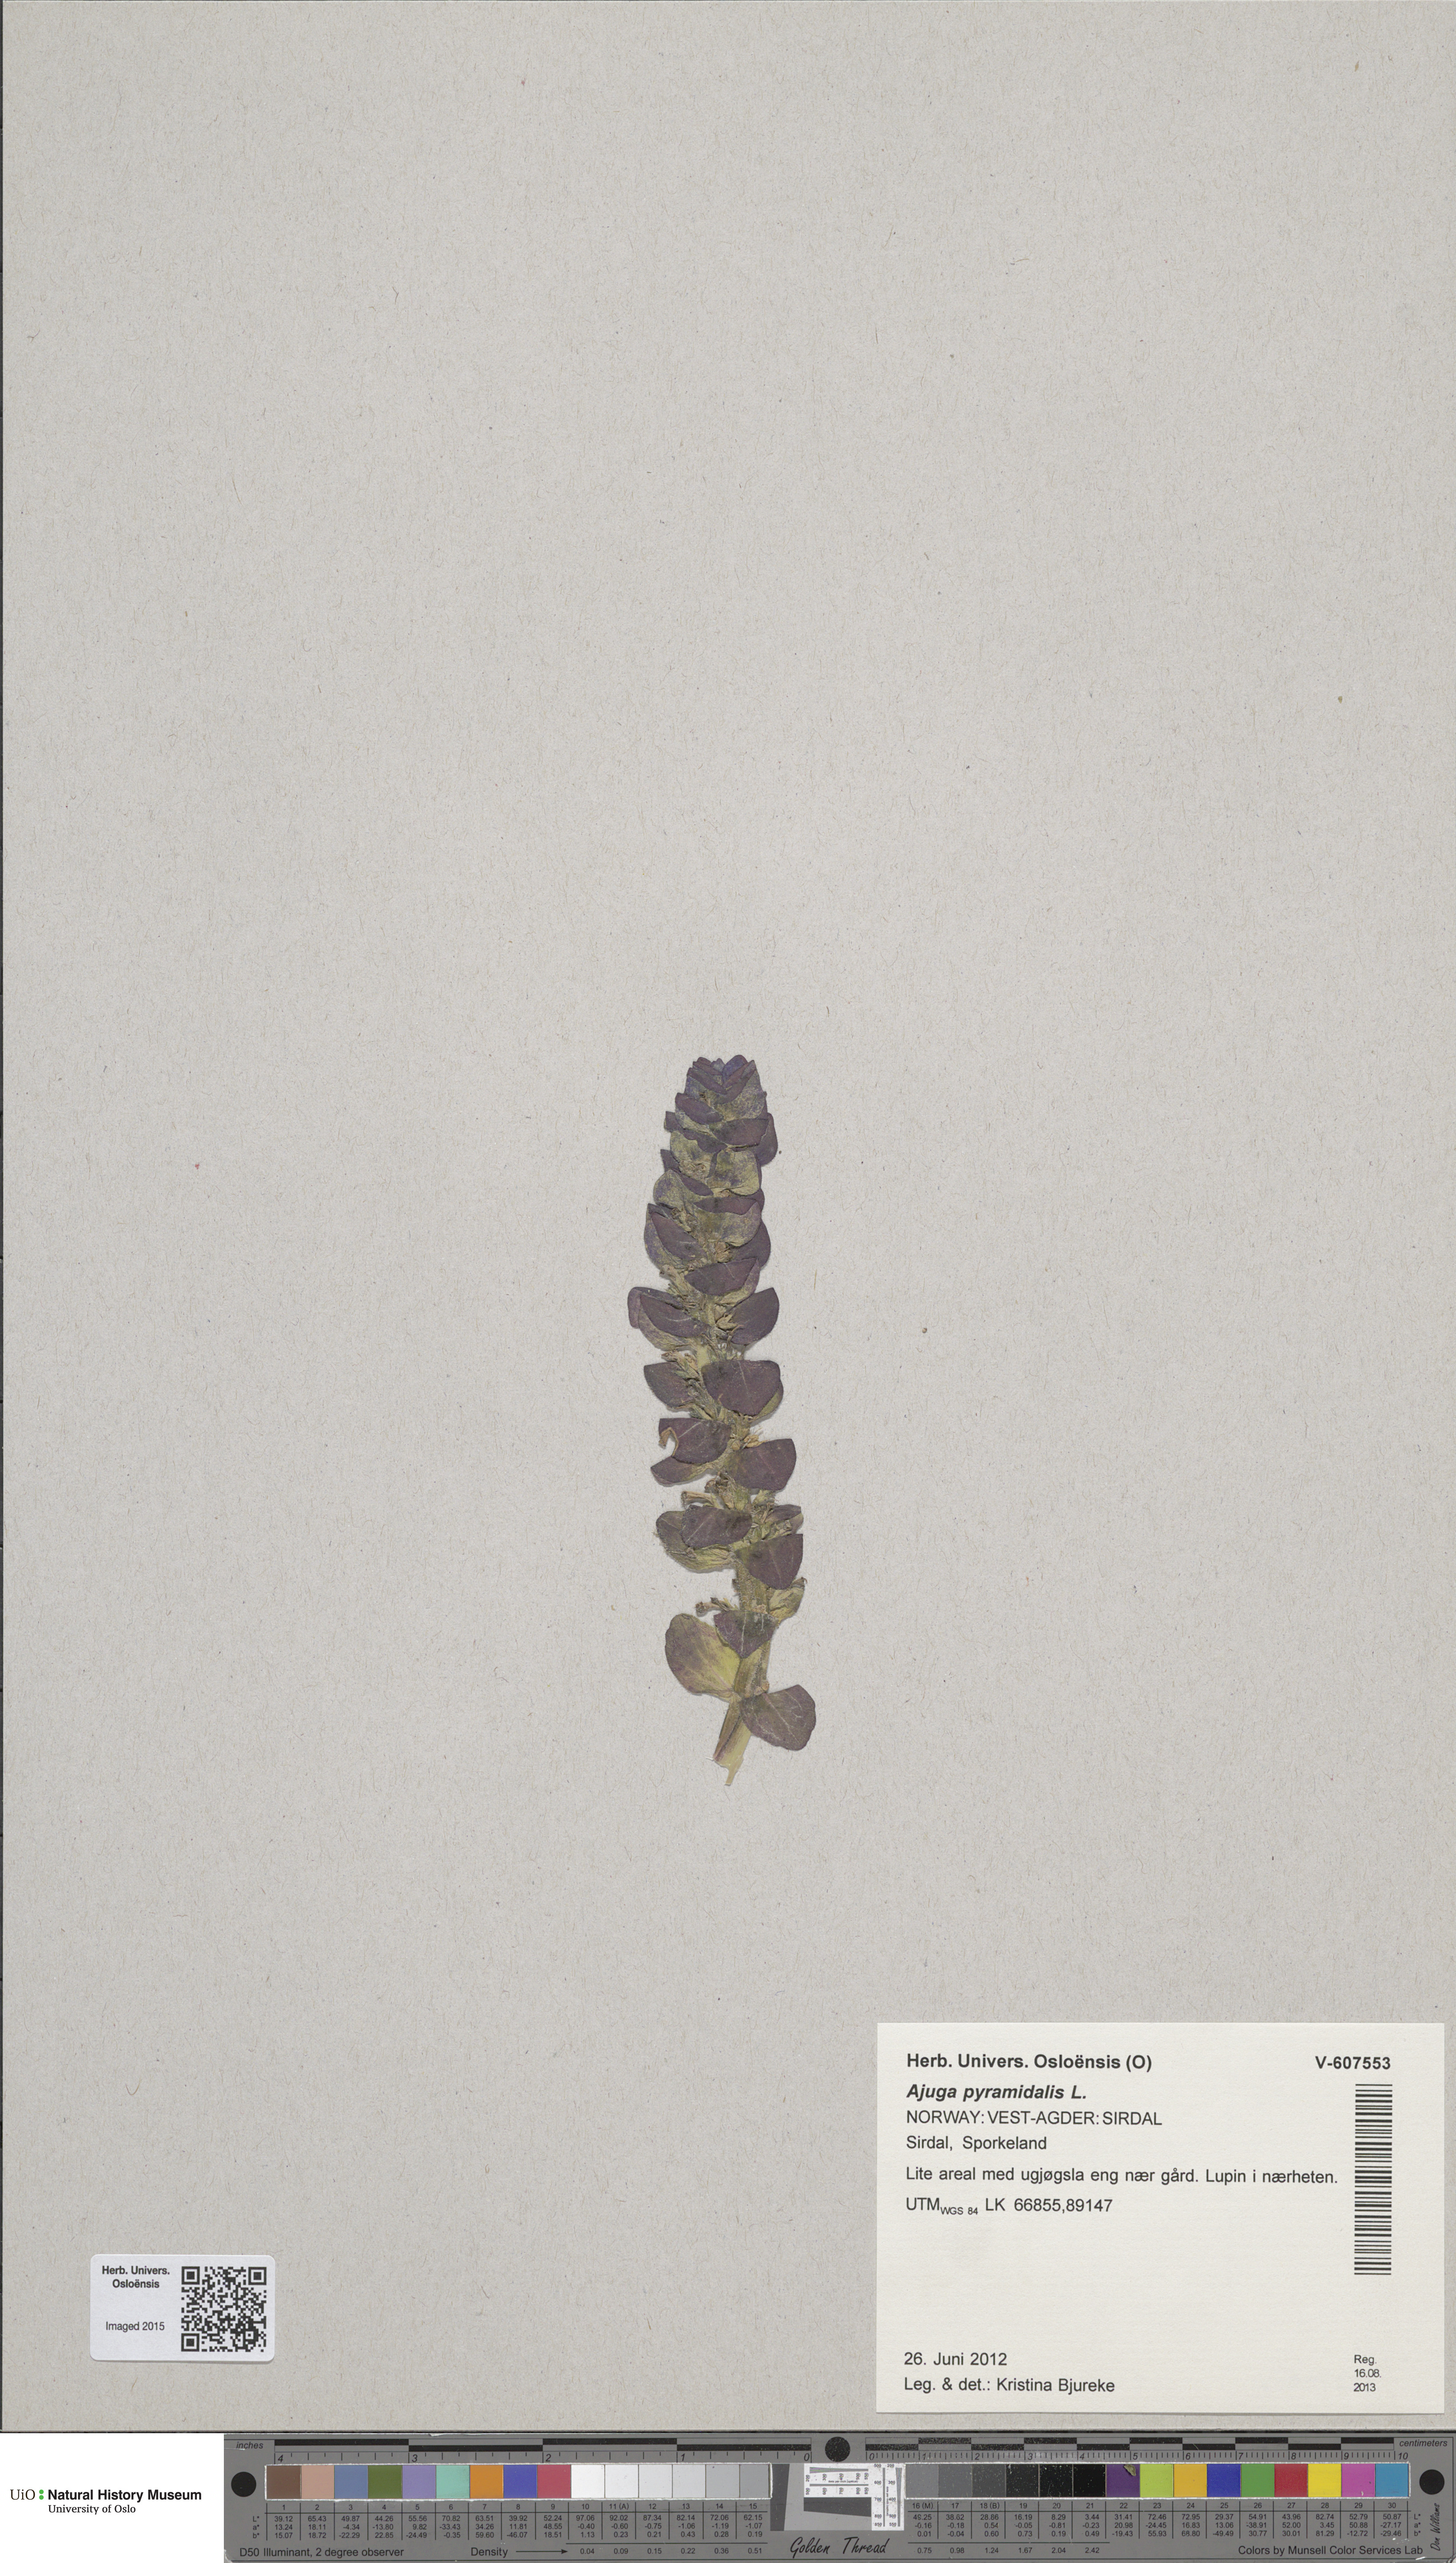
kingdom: Plantae
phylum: Tracheophyta
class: Magnoliopsida
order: Lamiales
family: Lamiaceae
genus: Ajuga
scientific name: Ajuga pyramidalis
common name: Pyramid bugle
